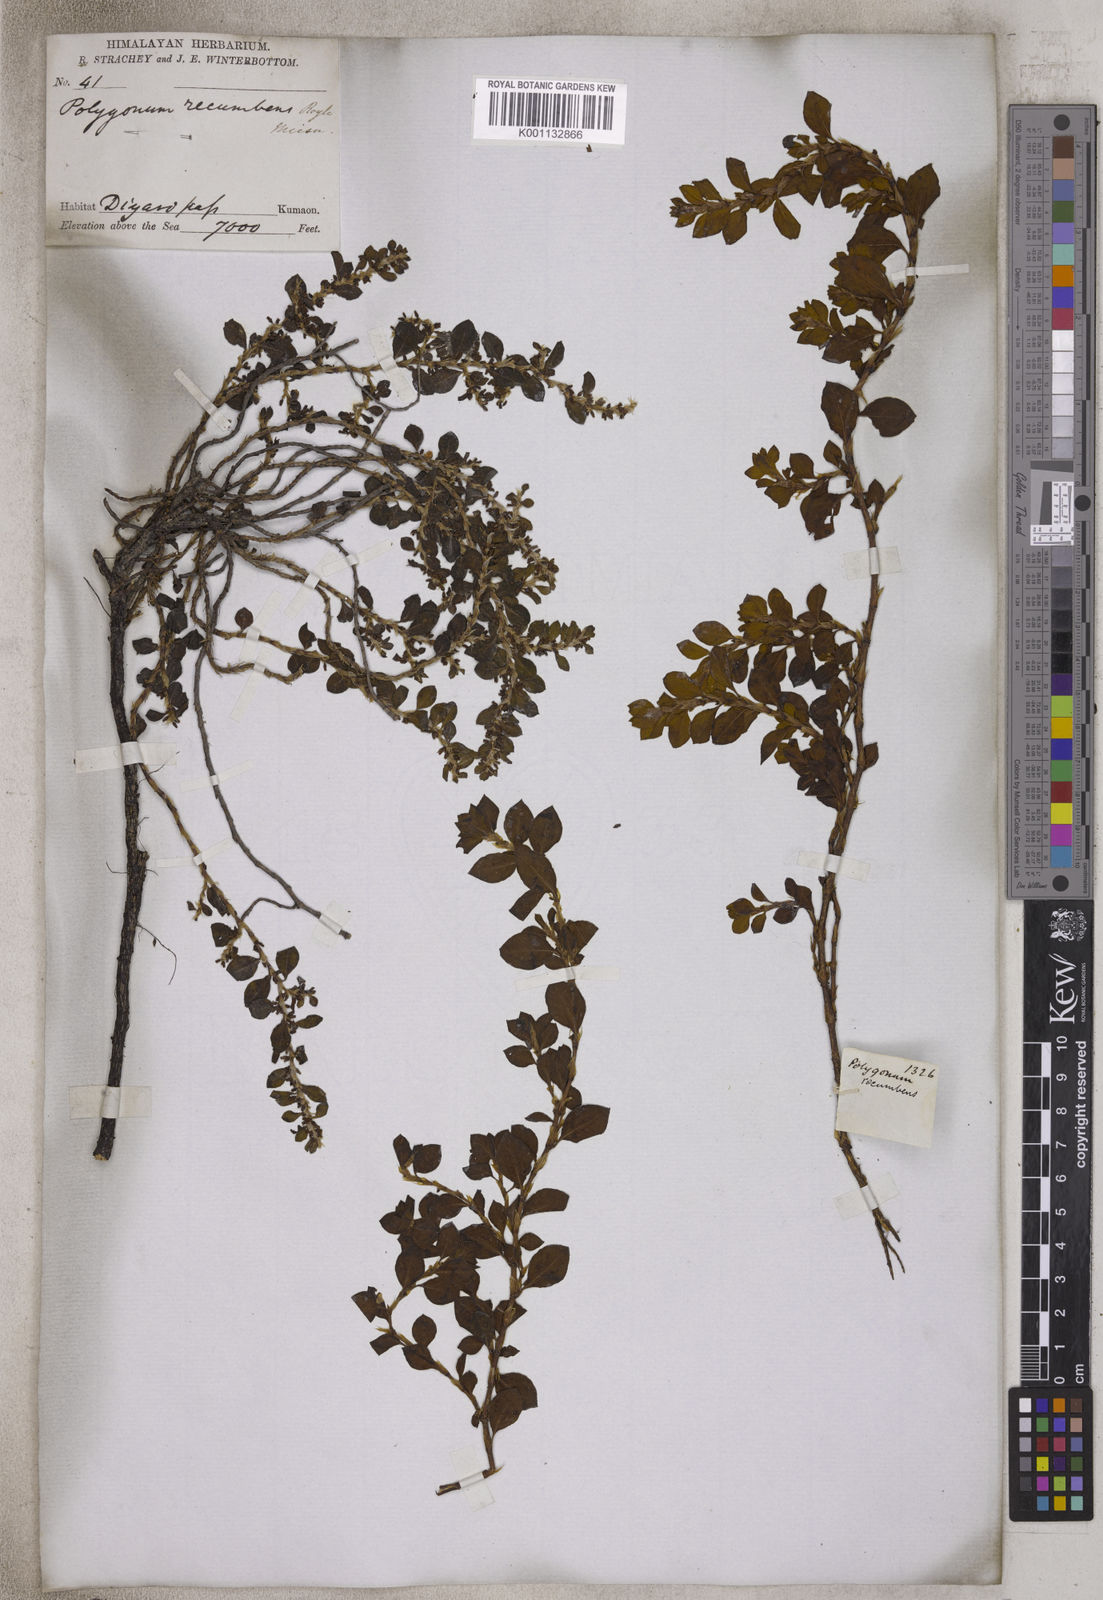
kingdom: Plantae
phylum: Tracheophyta
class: Magnoliopsida
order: Caryophyllales
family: Polygonaceae
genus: Polygonum
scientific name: Polygonum recumbens
